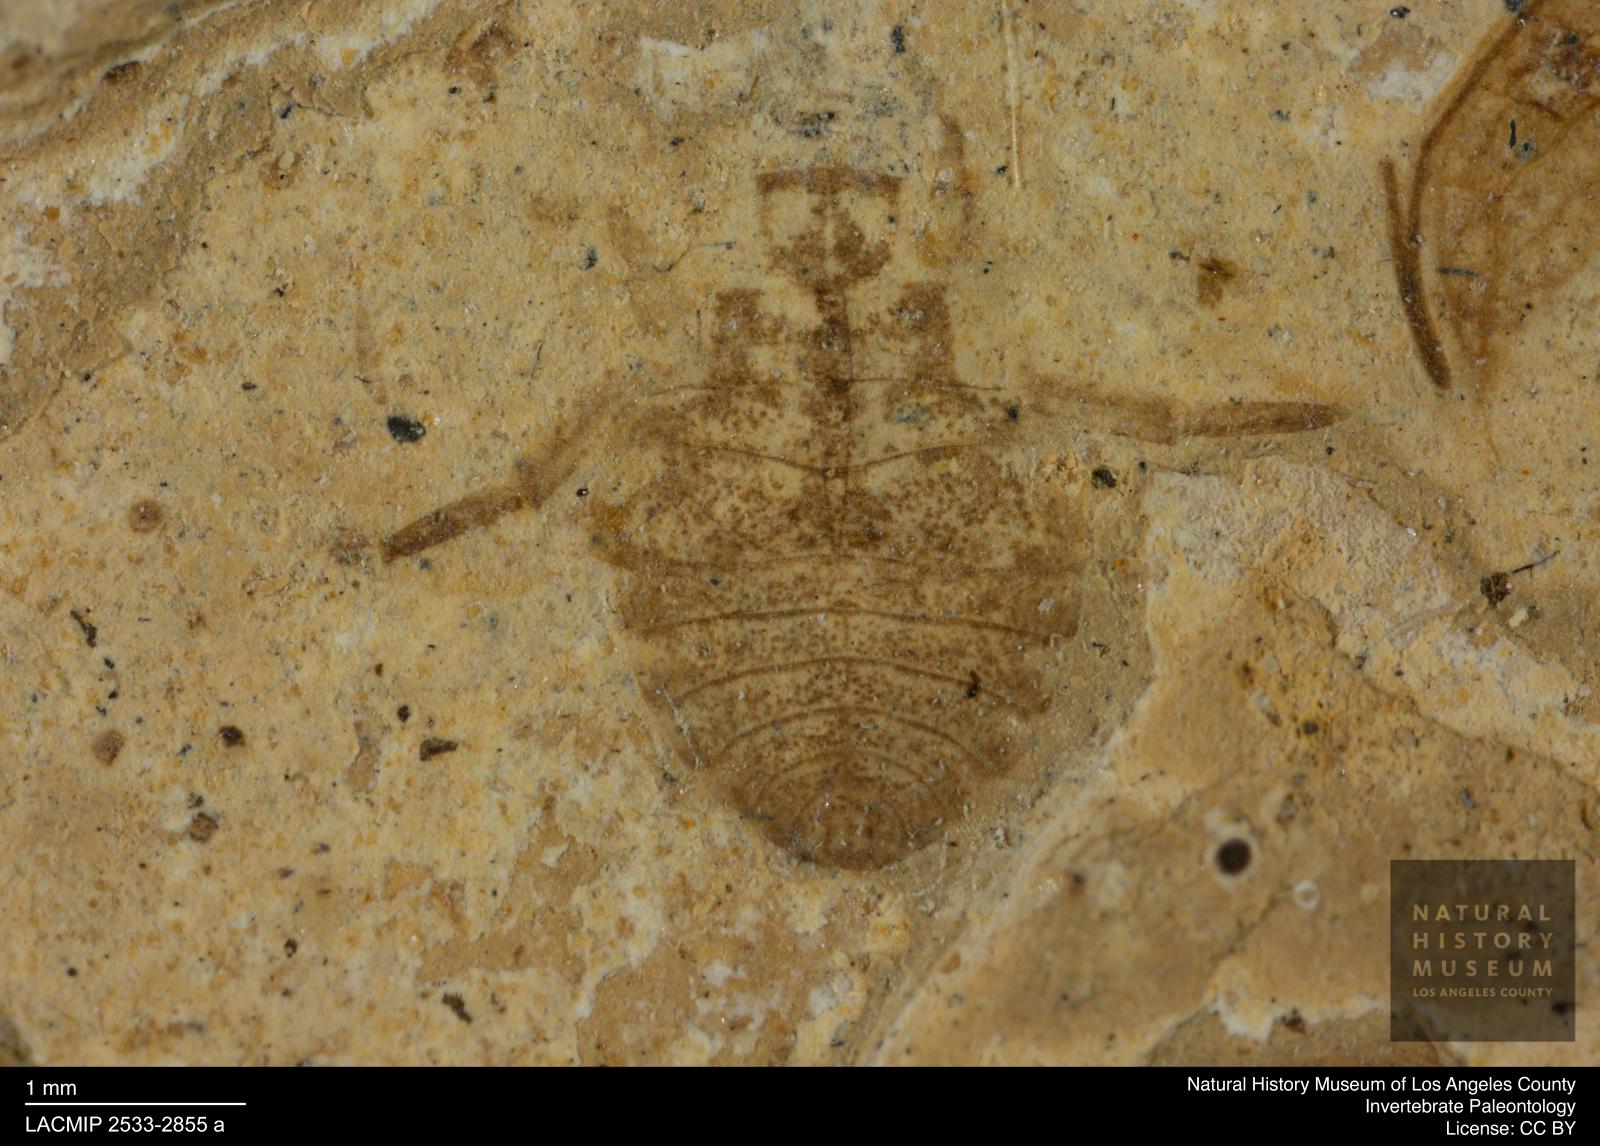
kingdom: Animalia
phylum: Arthropoda
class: Insecta
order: Hemiptera
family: Naucoridae
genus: Naucoris
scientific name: Naucoris rottensis
